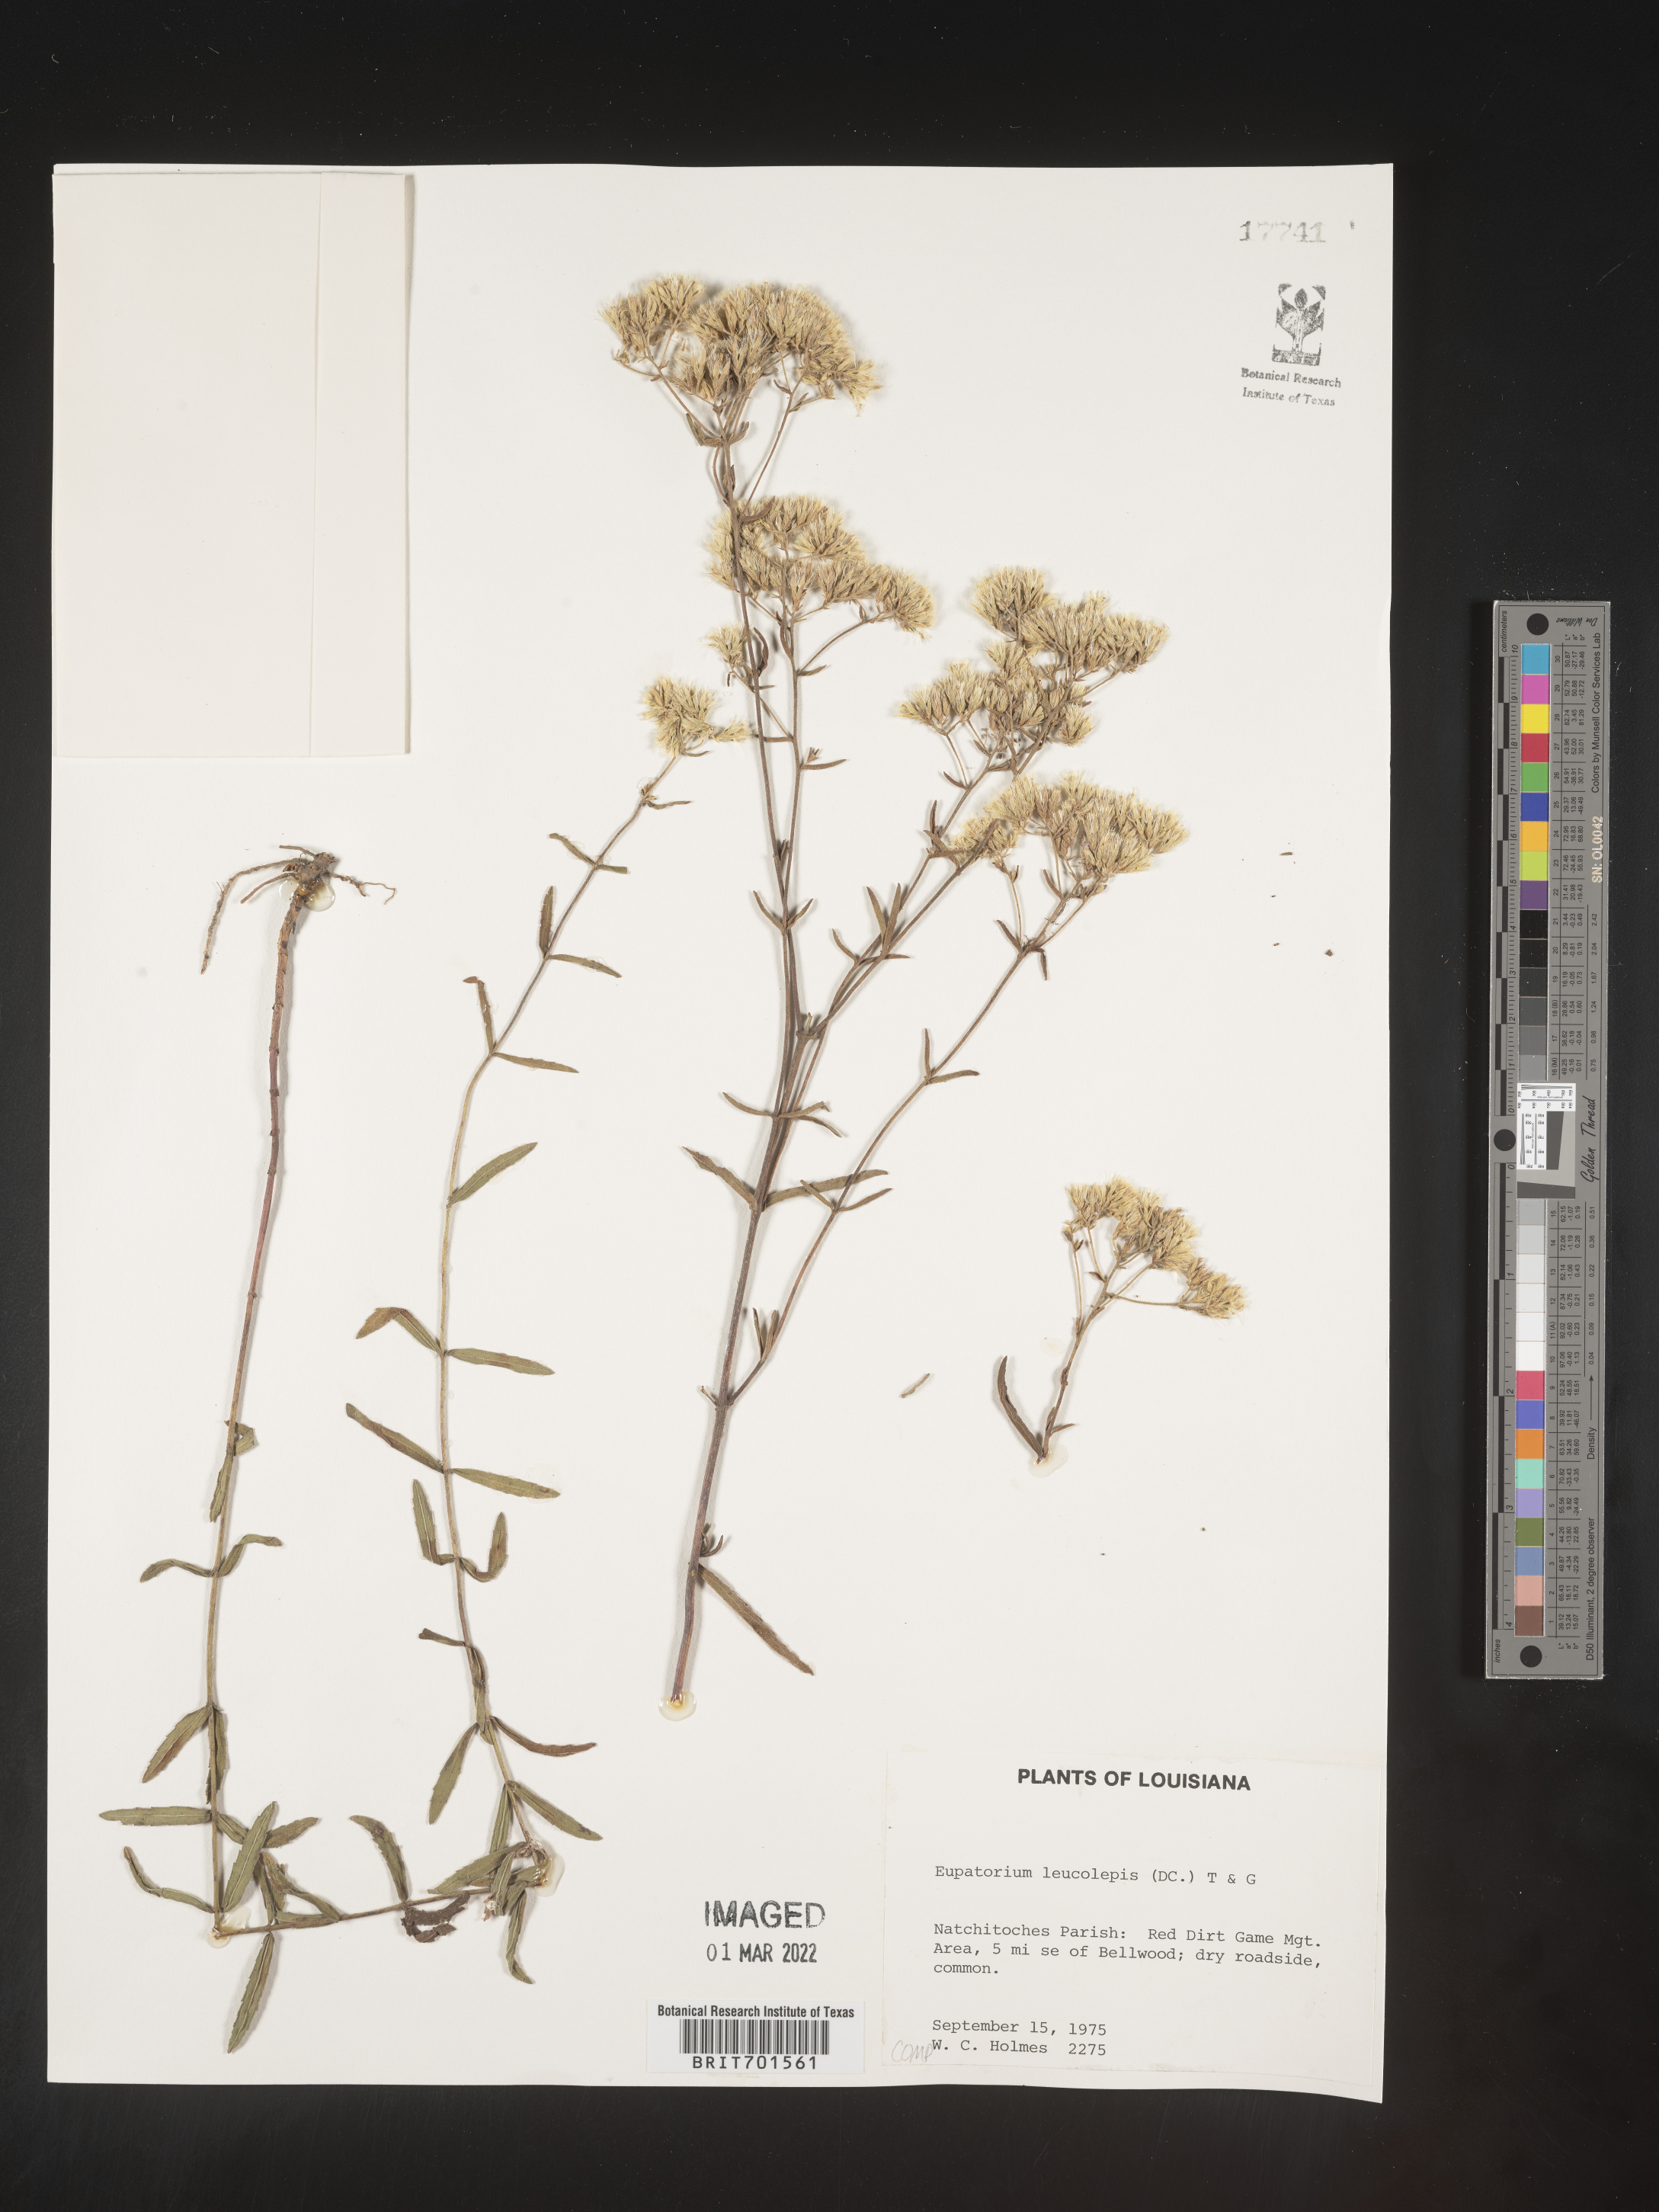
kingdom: Plantae
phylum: Tracheophyta
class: Magnoliopsida
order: Asterales
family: Asteraceae
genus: Eupatorium
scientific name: Eupatorium leucolepis
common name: Justiceweed
